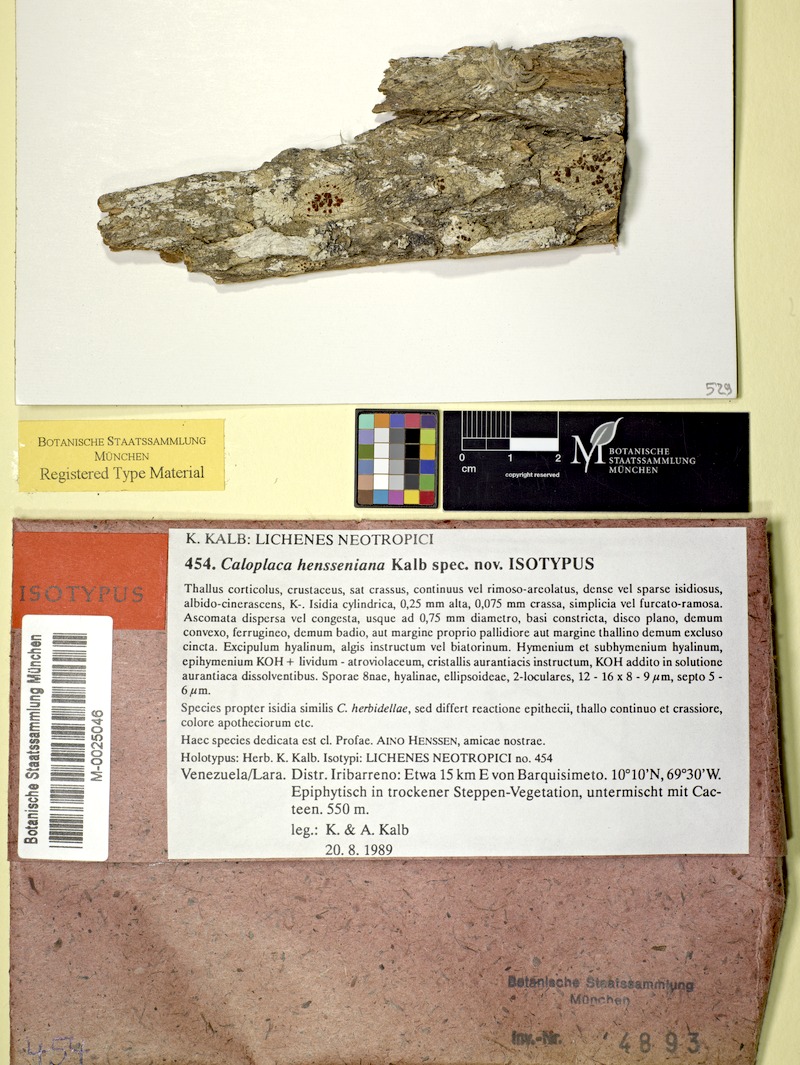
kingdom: Fungi
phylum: Ascomycota
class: Lecanoromycetes
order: Teloschistales
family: Teloschistaceae
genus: Caloplaca
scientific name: Caloplaca hensseniana
